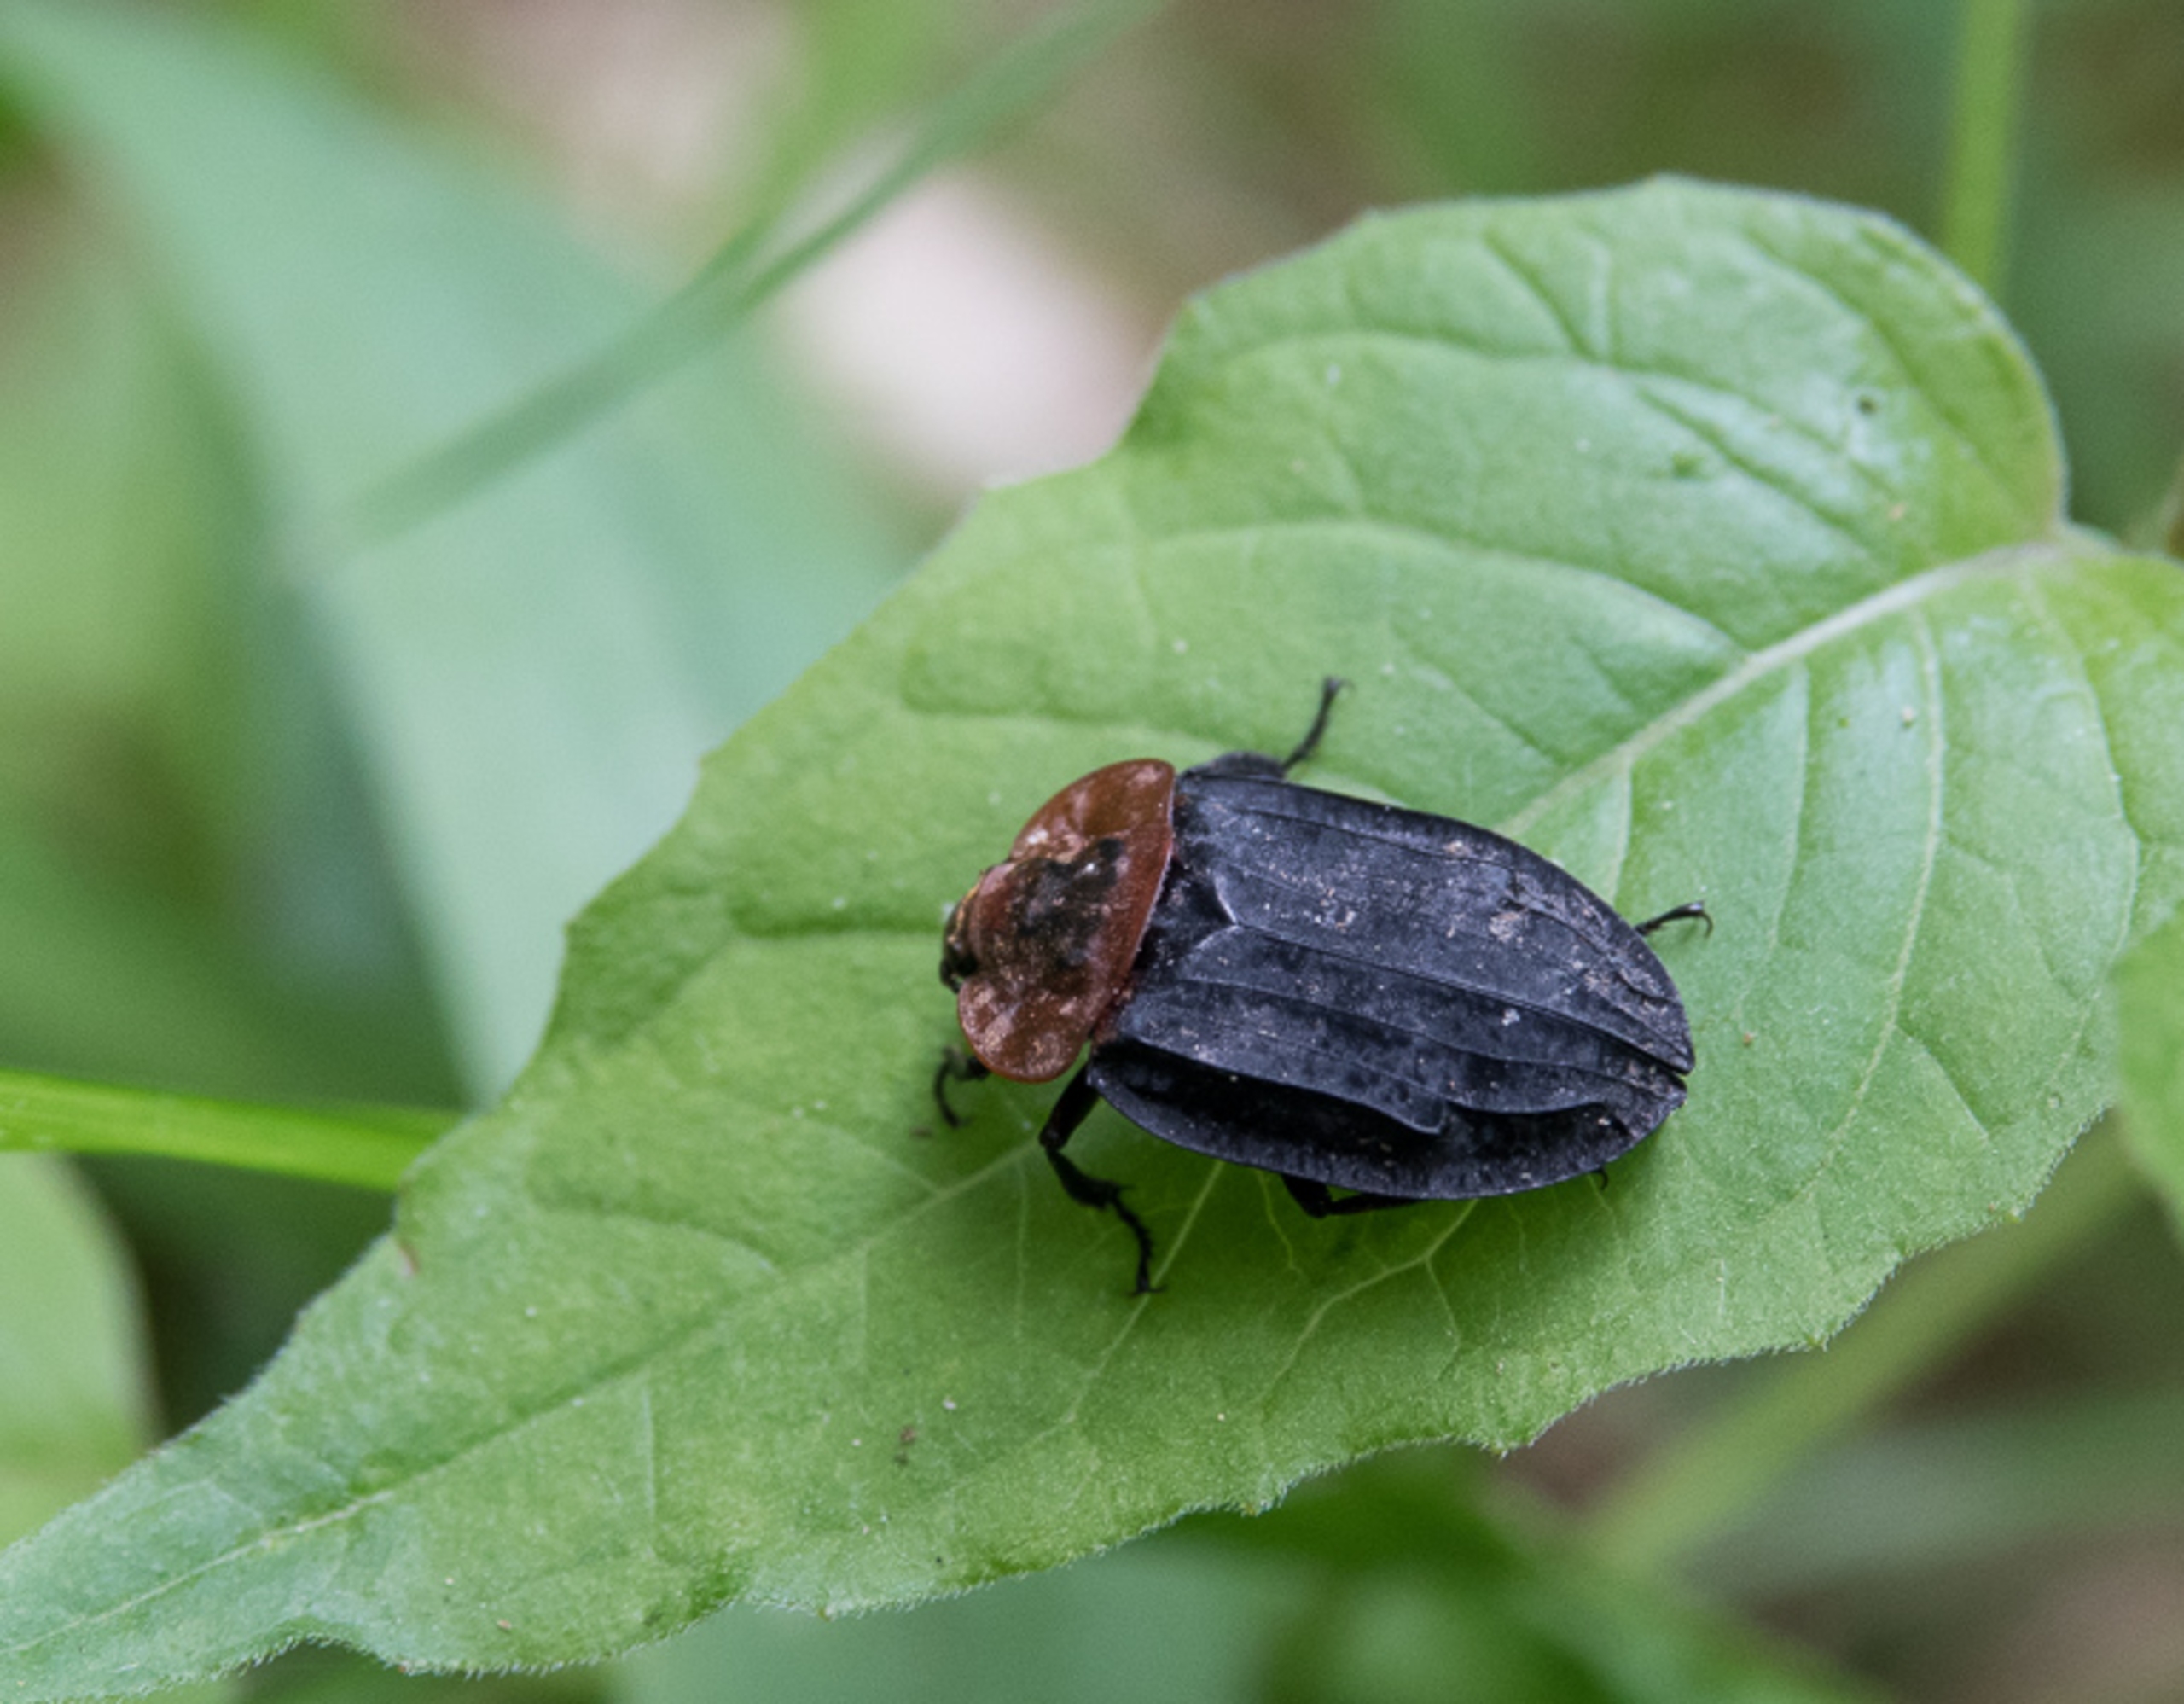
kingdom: Animalia
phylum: Arthropoda
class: Insecta
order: Coleoptera
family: Staphylinidae
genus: Oiceoptoma
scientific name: Oiceoptoma thoracicum
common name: Rødbrystet ådselbille
